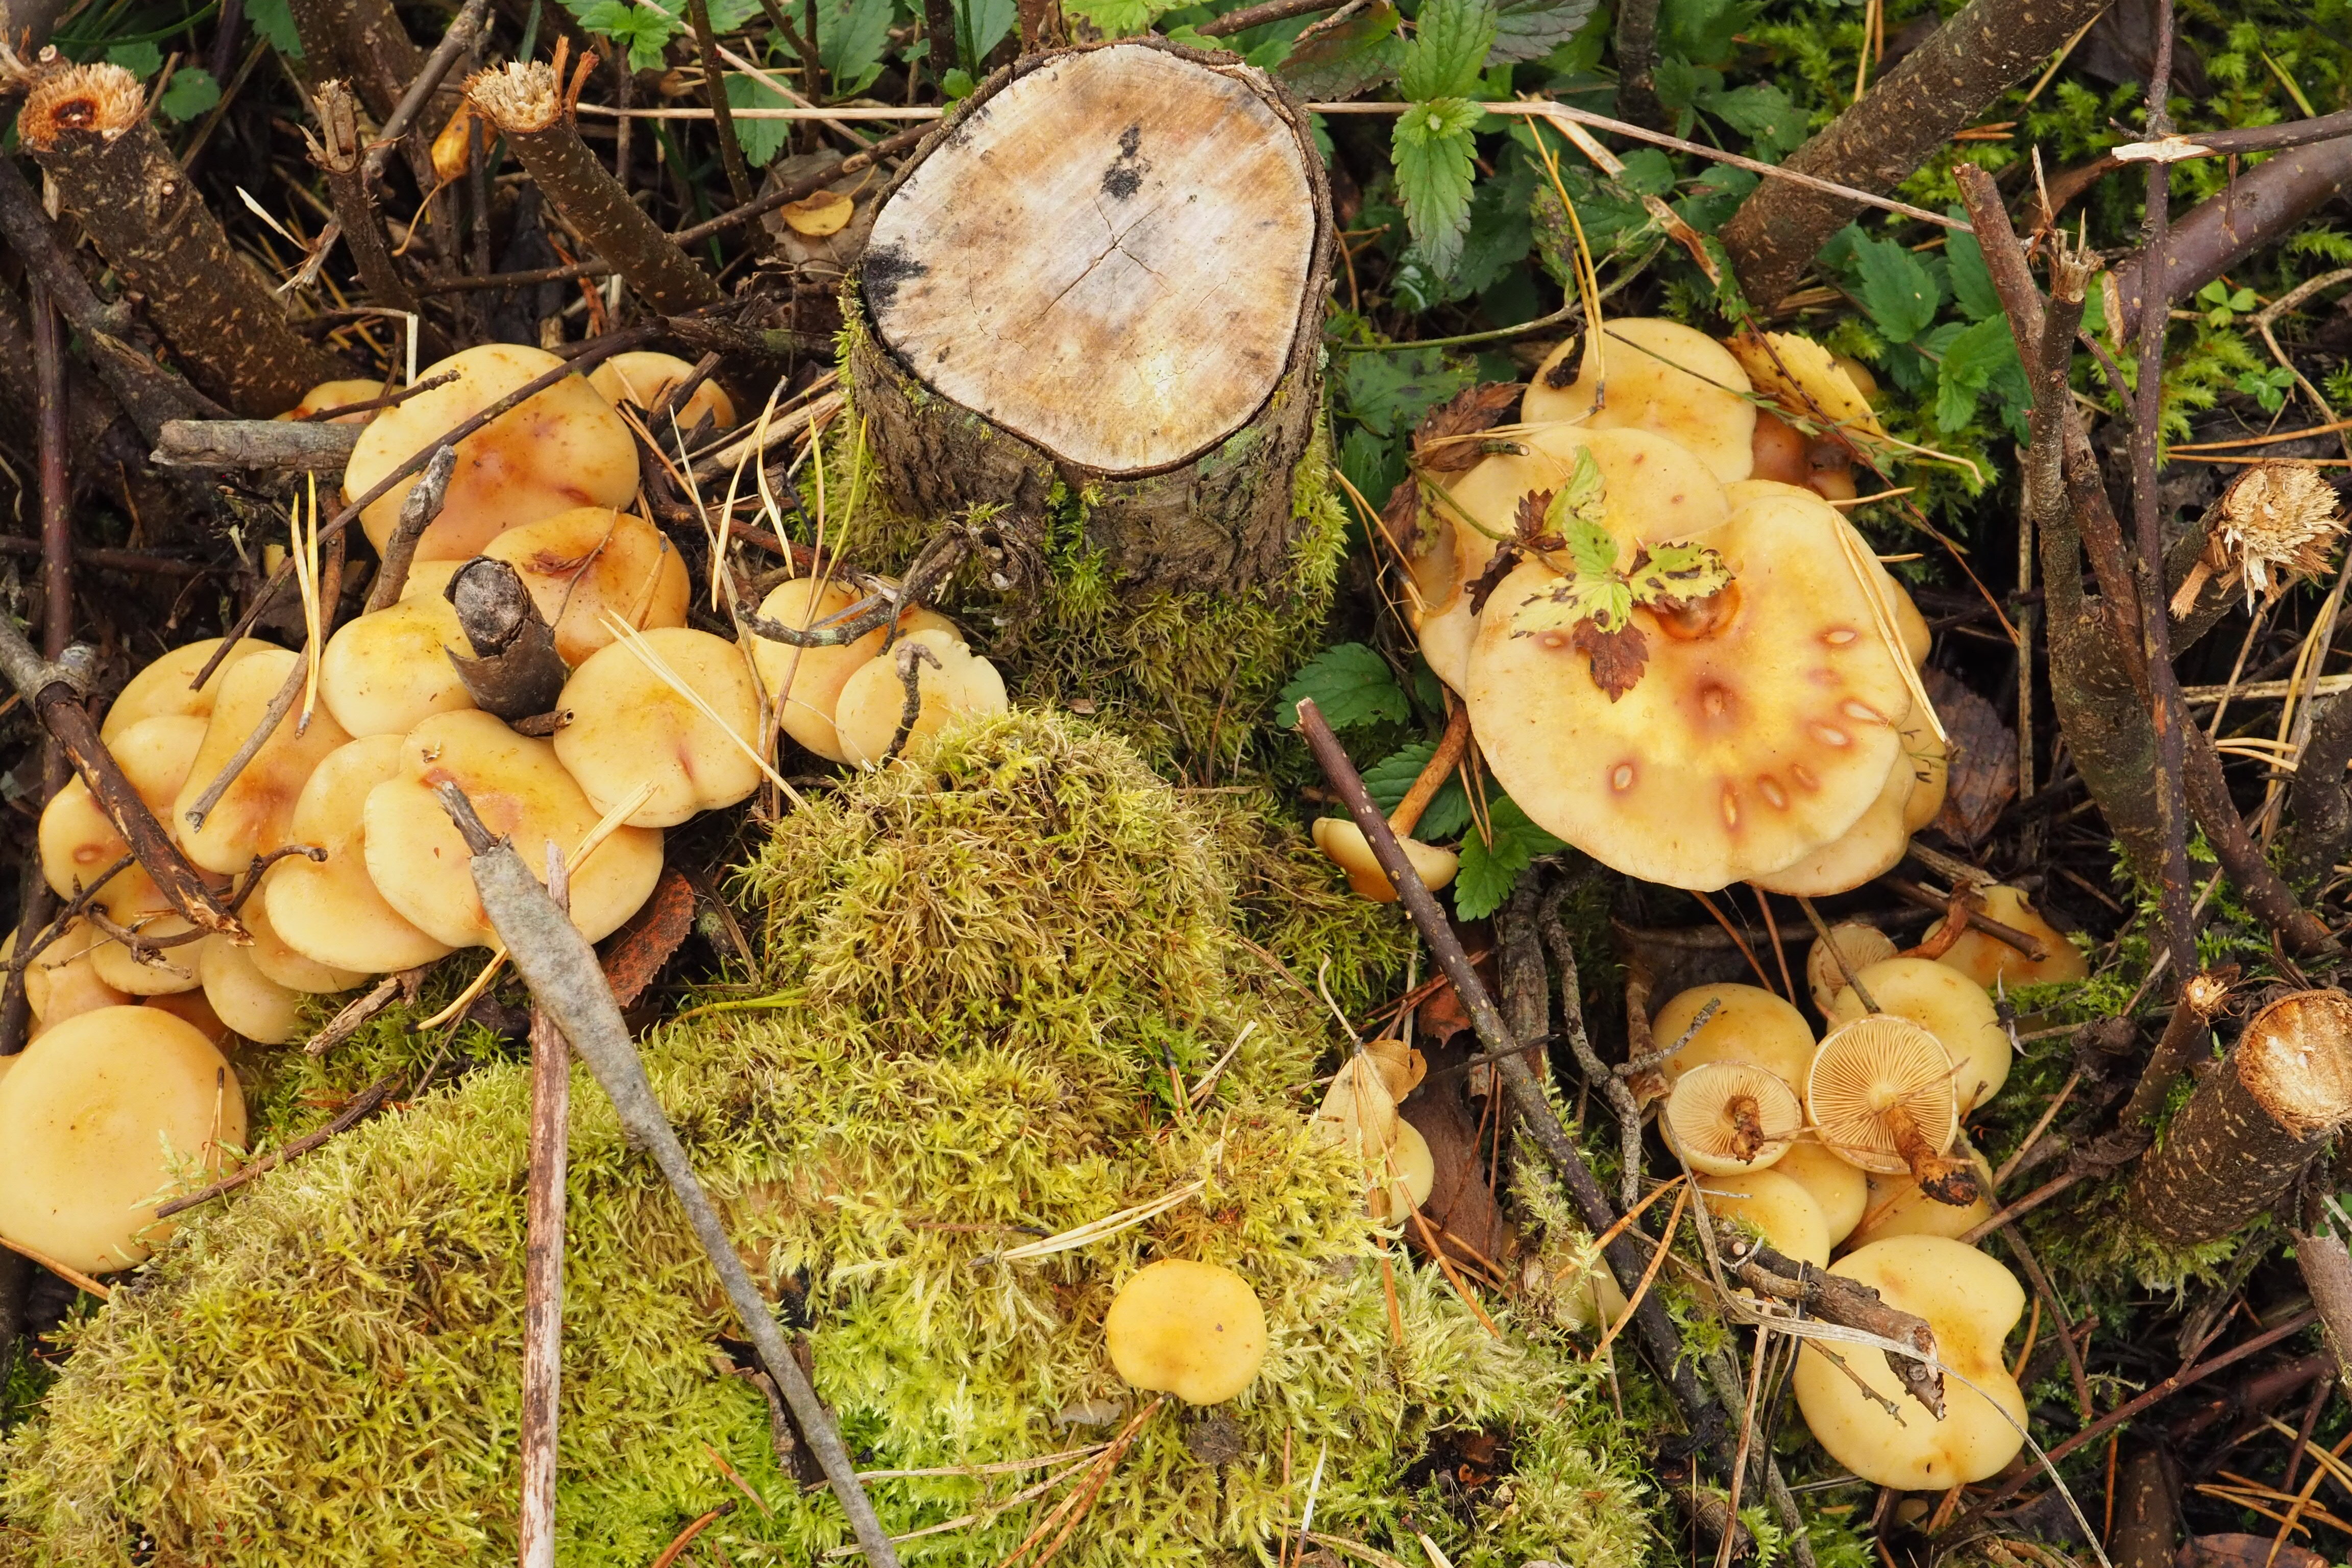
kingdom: Fungi
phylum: Basidiomycota
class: Agaricomycetes
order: Agaricales
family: Hymenogastraceae
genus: Flammula
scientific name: Flammula alnicola
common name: Alder scalycap
